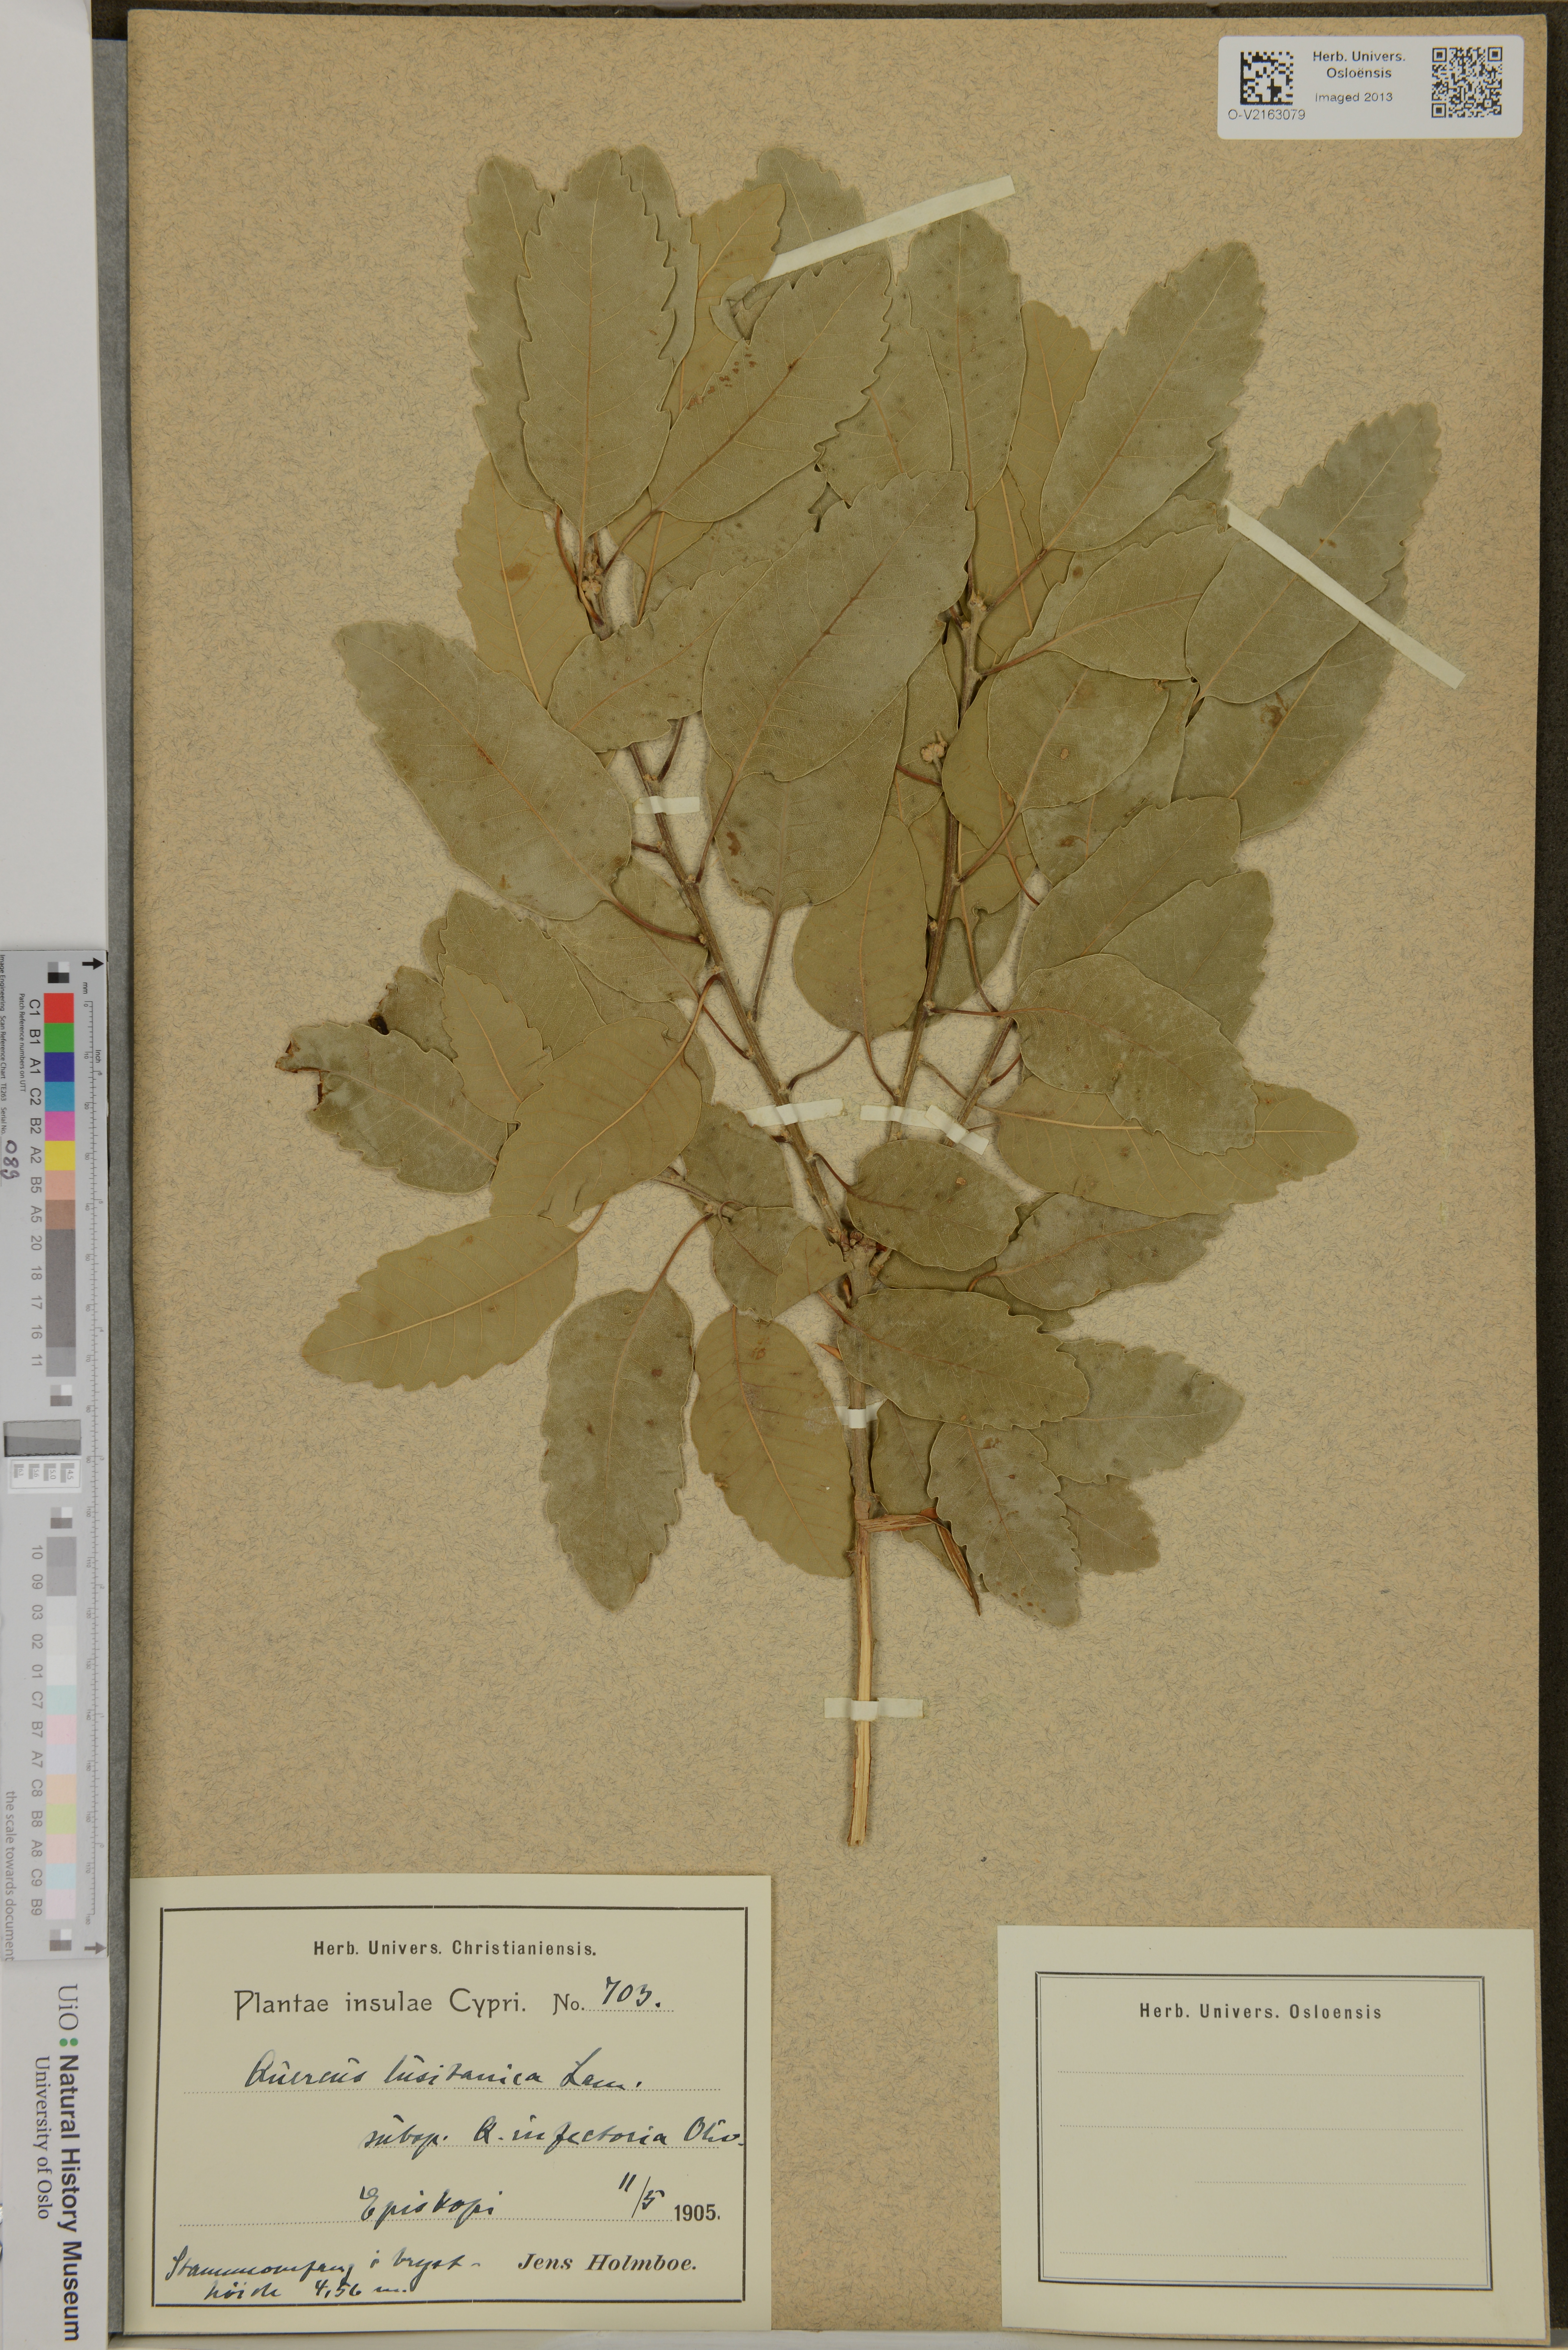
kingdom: Plantae
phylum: Tracheophyta
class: Magnoliopsida
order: Fagales
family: Fagaceae
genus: Quercus
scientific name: Quercus lusitanica
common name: Scrub gall oak
